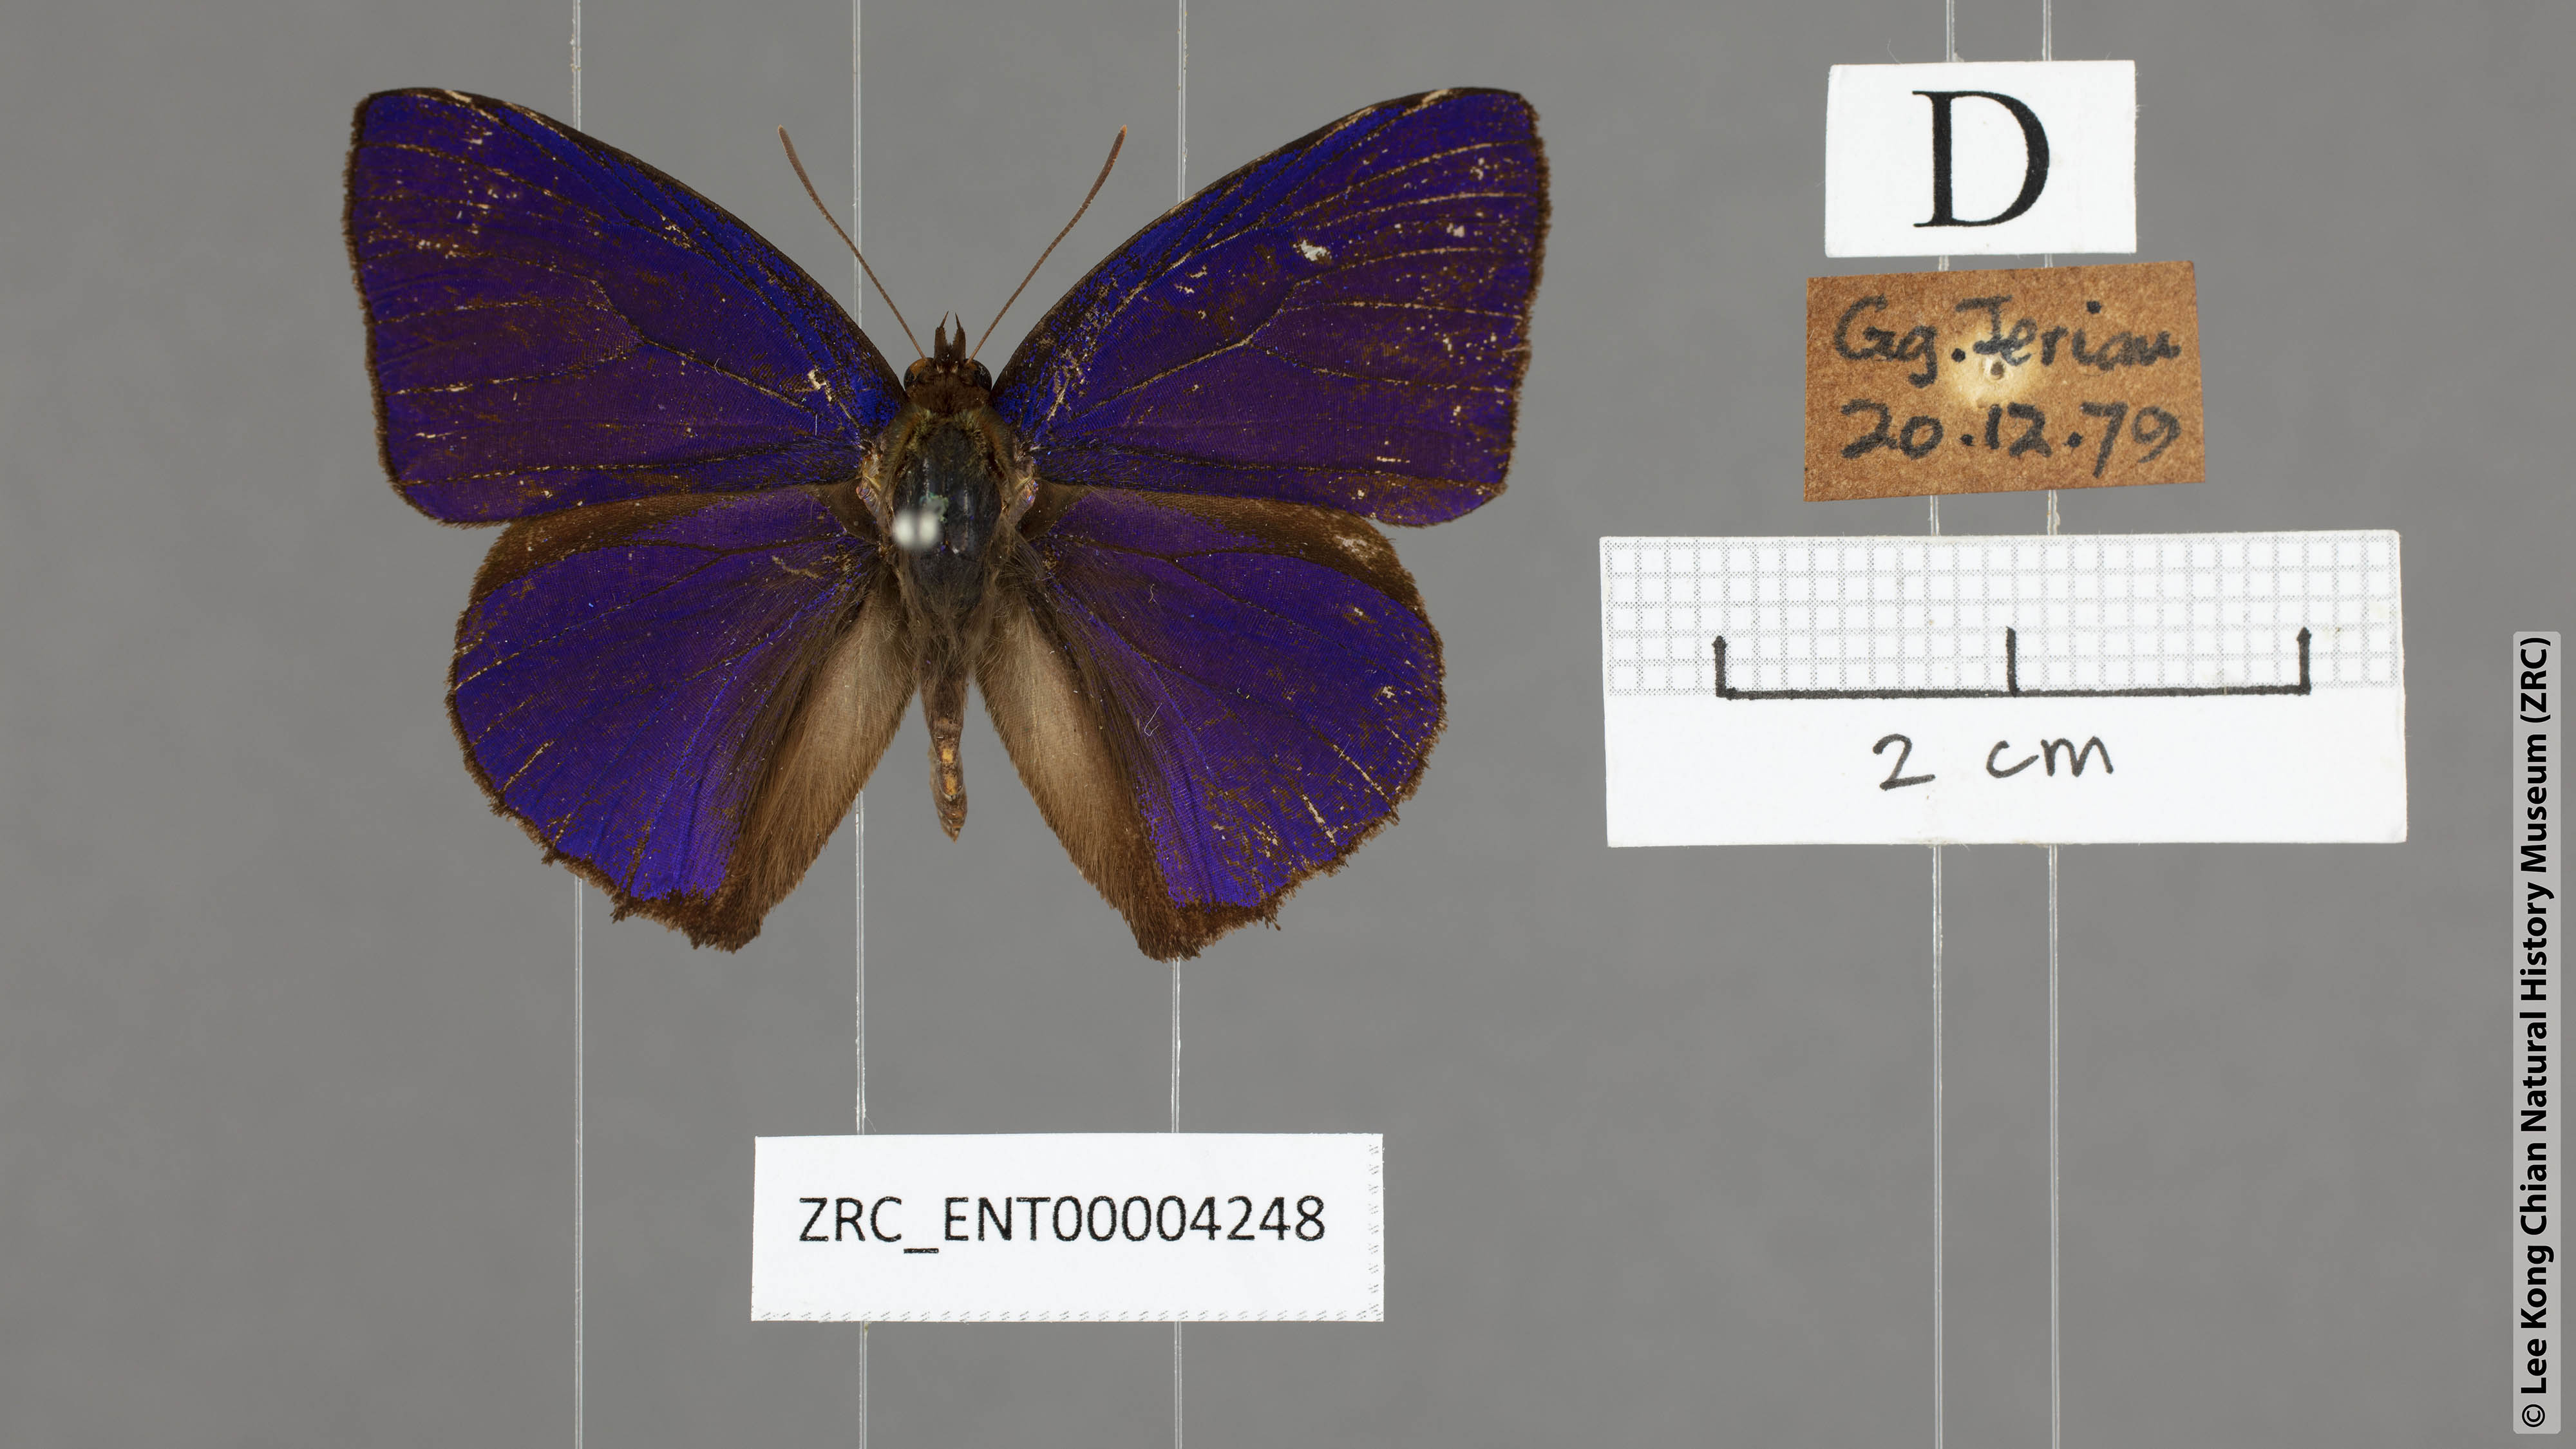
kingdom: Animalia
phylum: Arthropoda
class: Insecta
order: Lepidoptera
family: Lycaenidae
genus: Flos
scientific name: Flos
